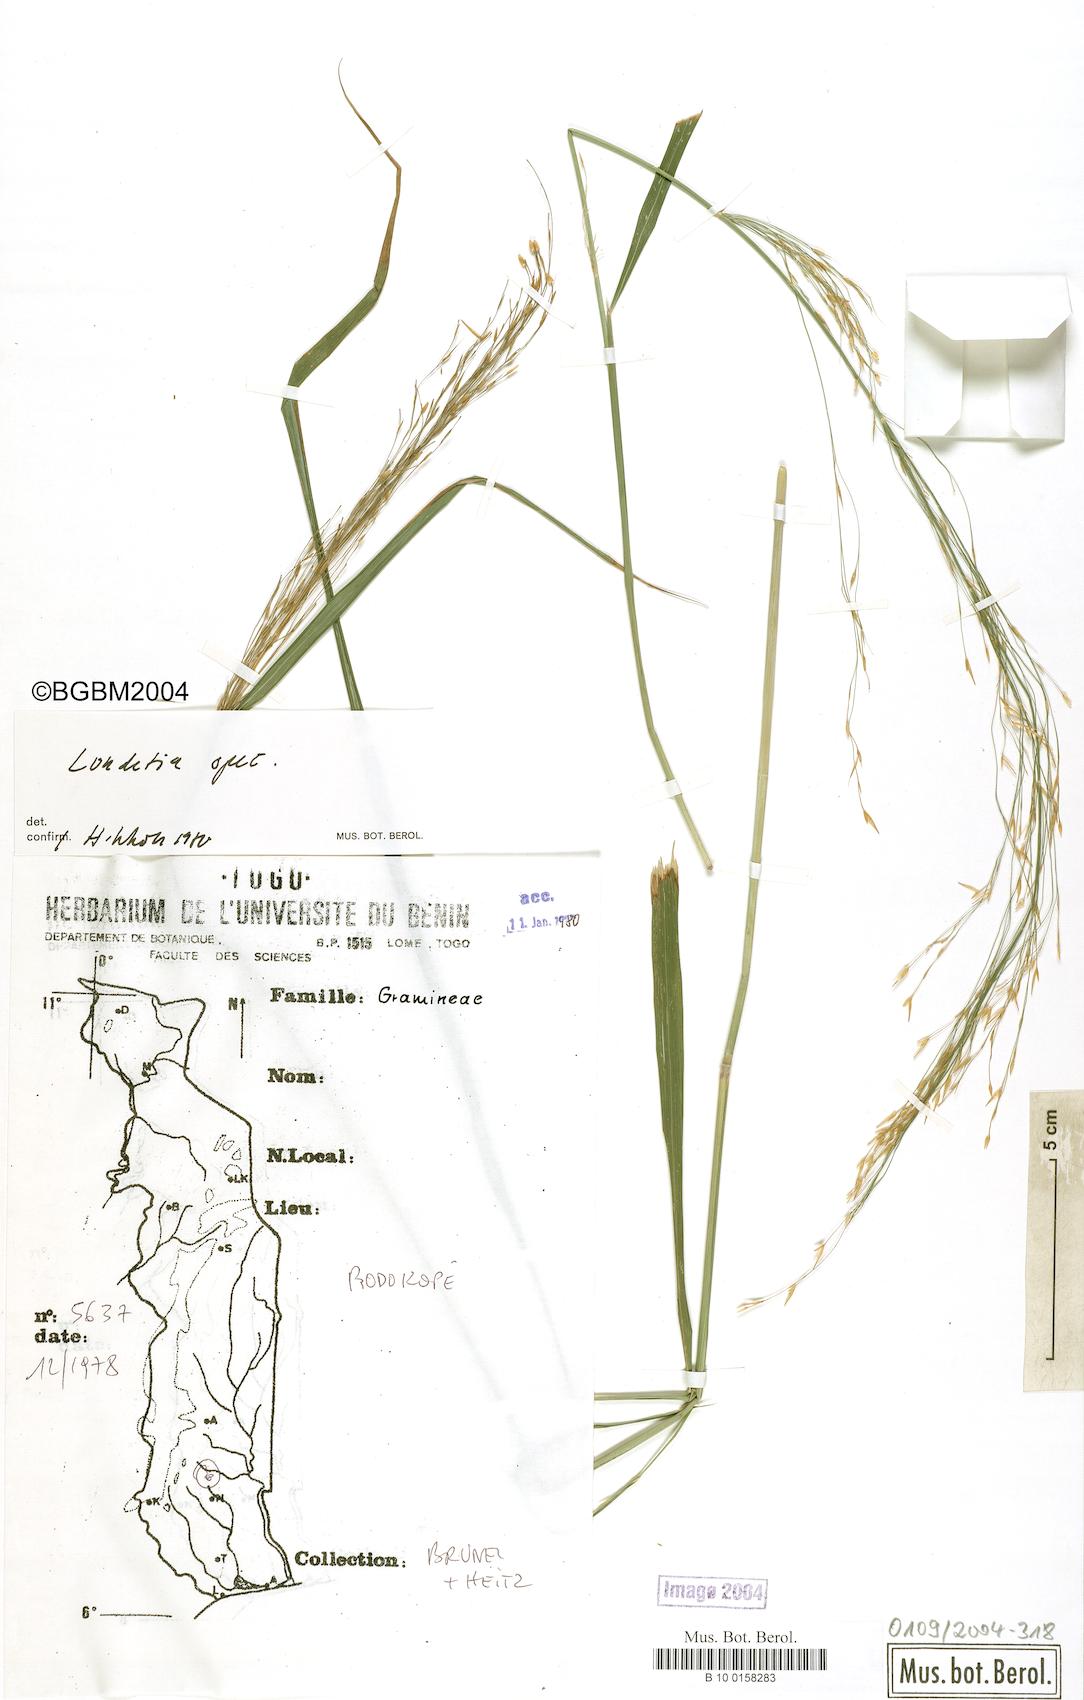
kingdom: Plantae
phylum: Tracheophyta
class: Liliopsida
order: Poales
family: Poaceae
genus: Loudetia
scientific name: Loudetia
